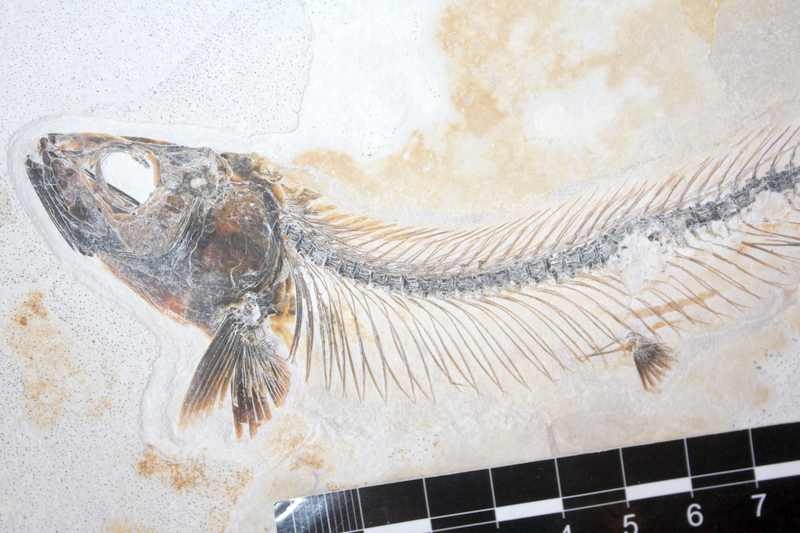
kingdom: Animalia
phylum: Chordata
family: Allothrissopidae
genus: Allothrissops
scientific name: Allothrissops mesogaster
